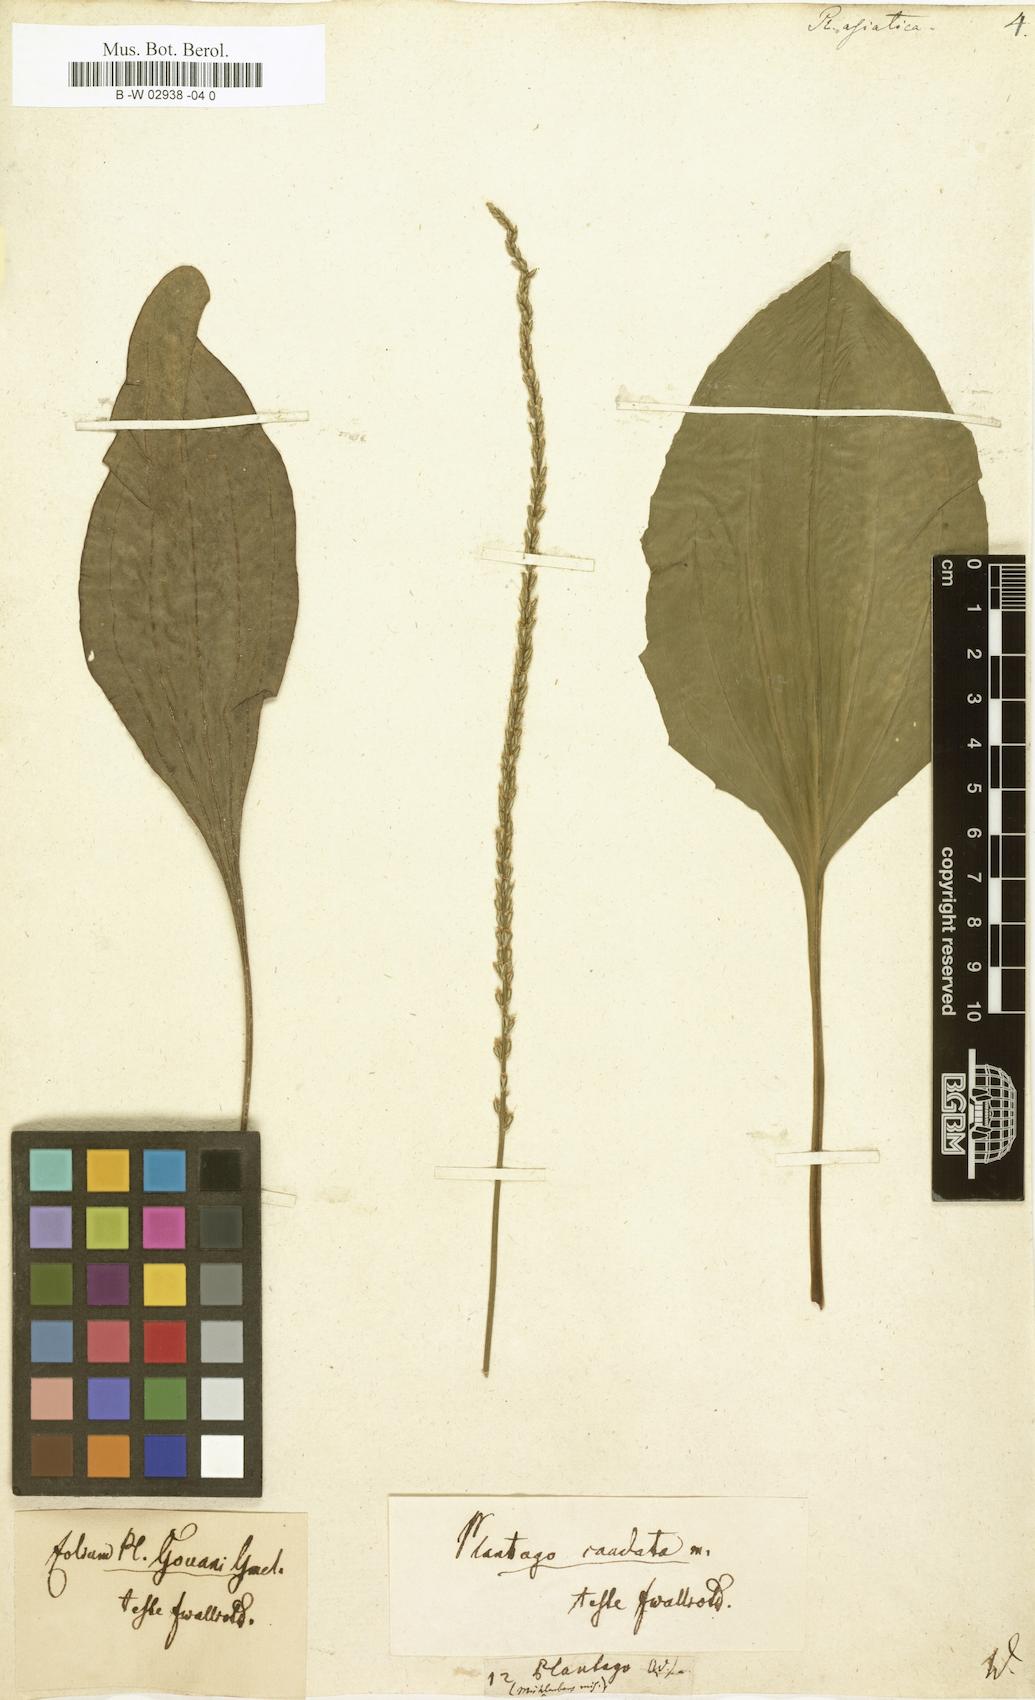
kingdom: Plantae
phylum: Tracheophyta
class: Magnoliopsida
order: Lamiales
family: Plantaginaceae
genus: Plantago
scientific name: Plantago asiatica
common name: Psyllium
